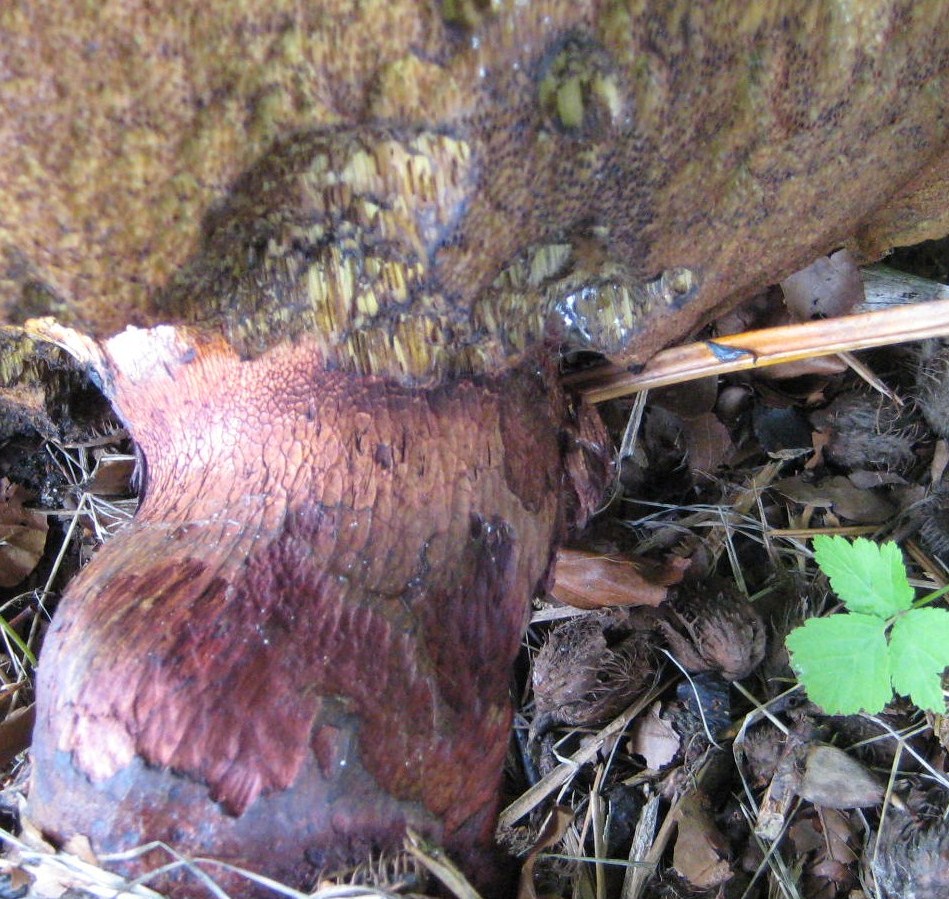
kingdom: Fungi
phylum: Basidiomycota
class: Agaricomycetes
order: Boletales
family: Boletaceae
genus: Suillellus
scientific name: Suillellus luridus
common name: netstokket indigorørhat
